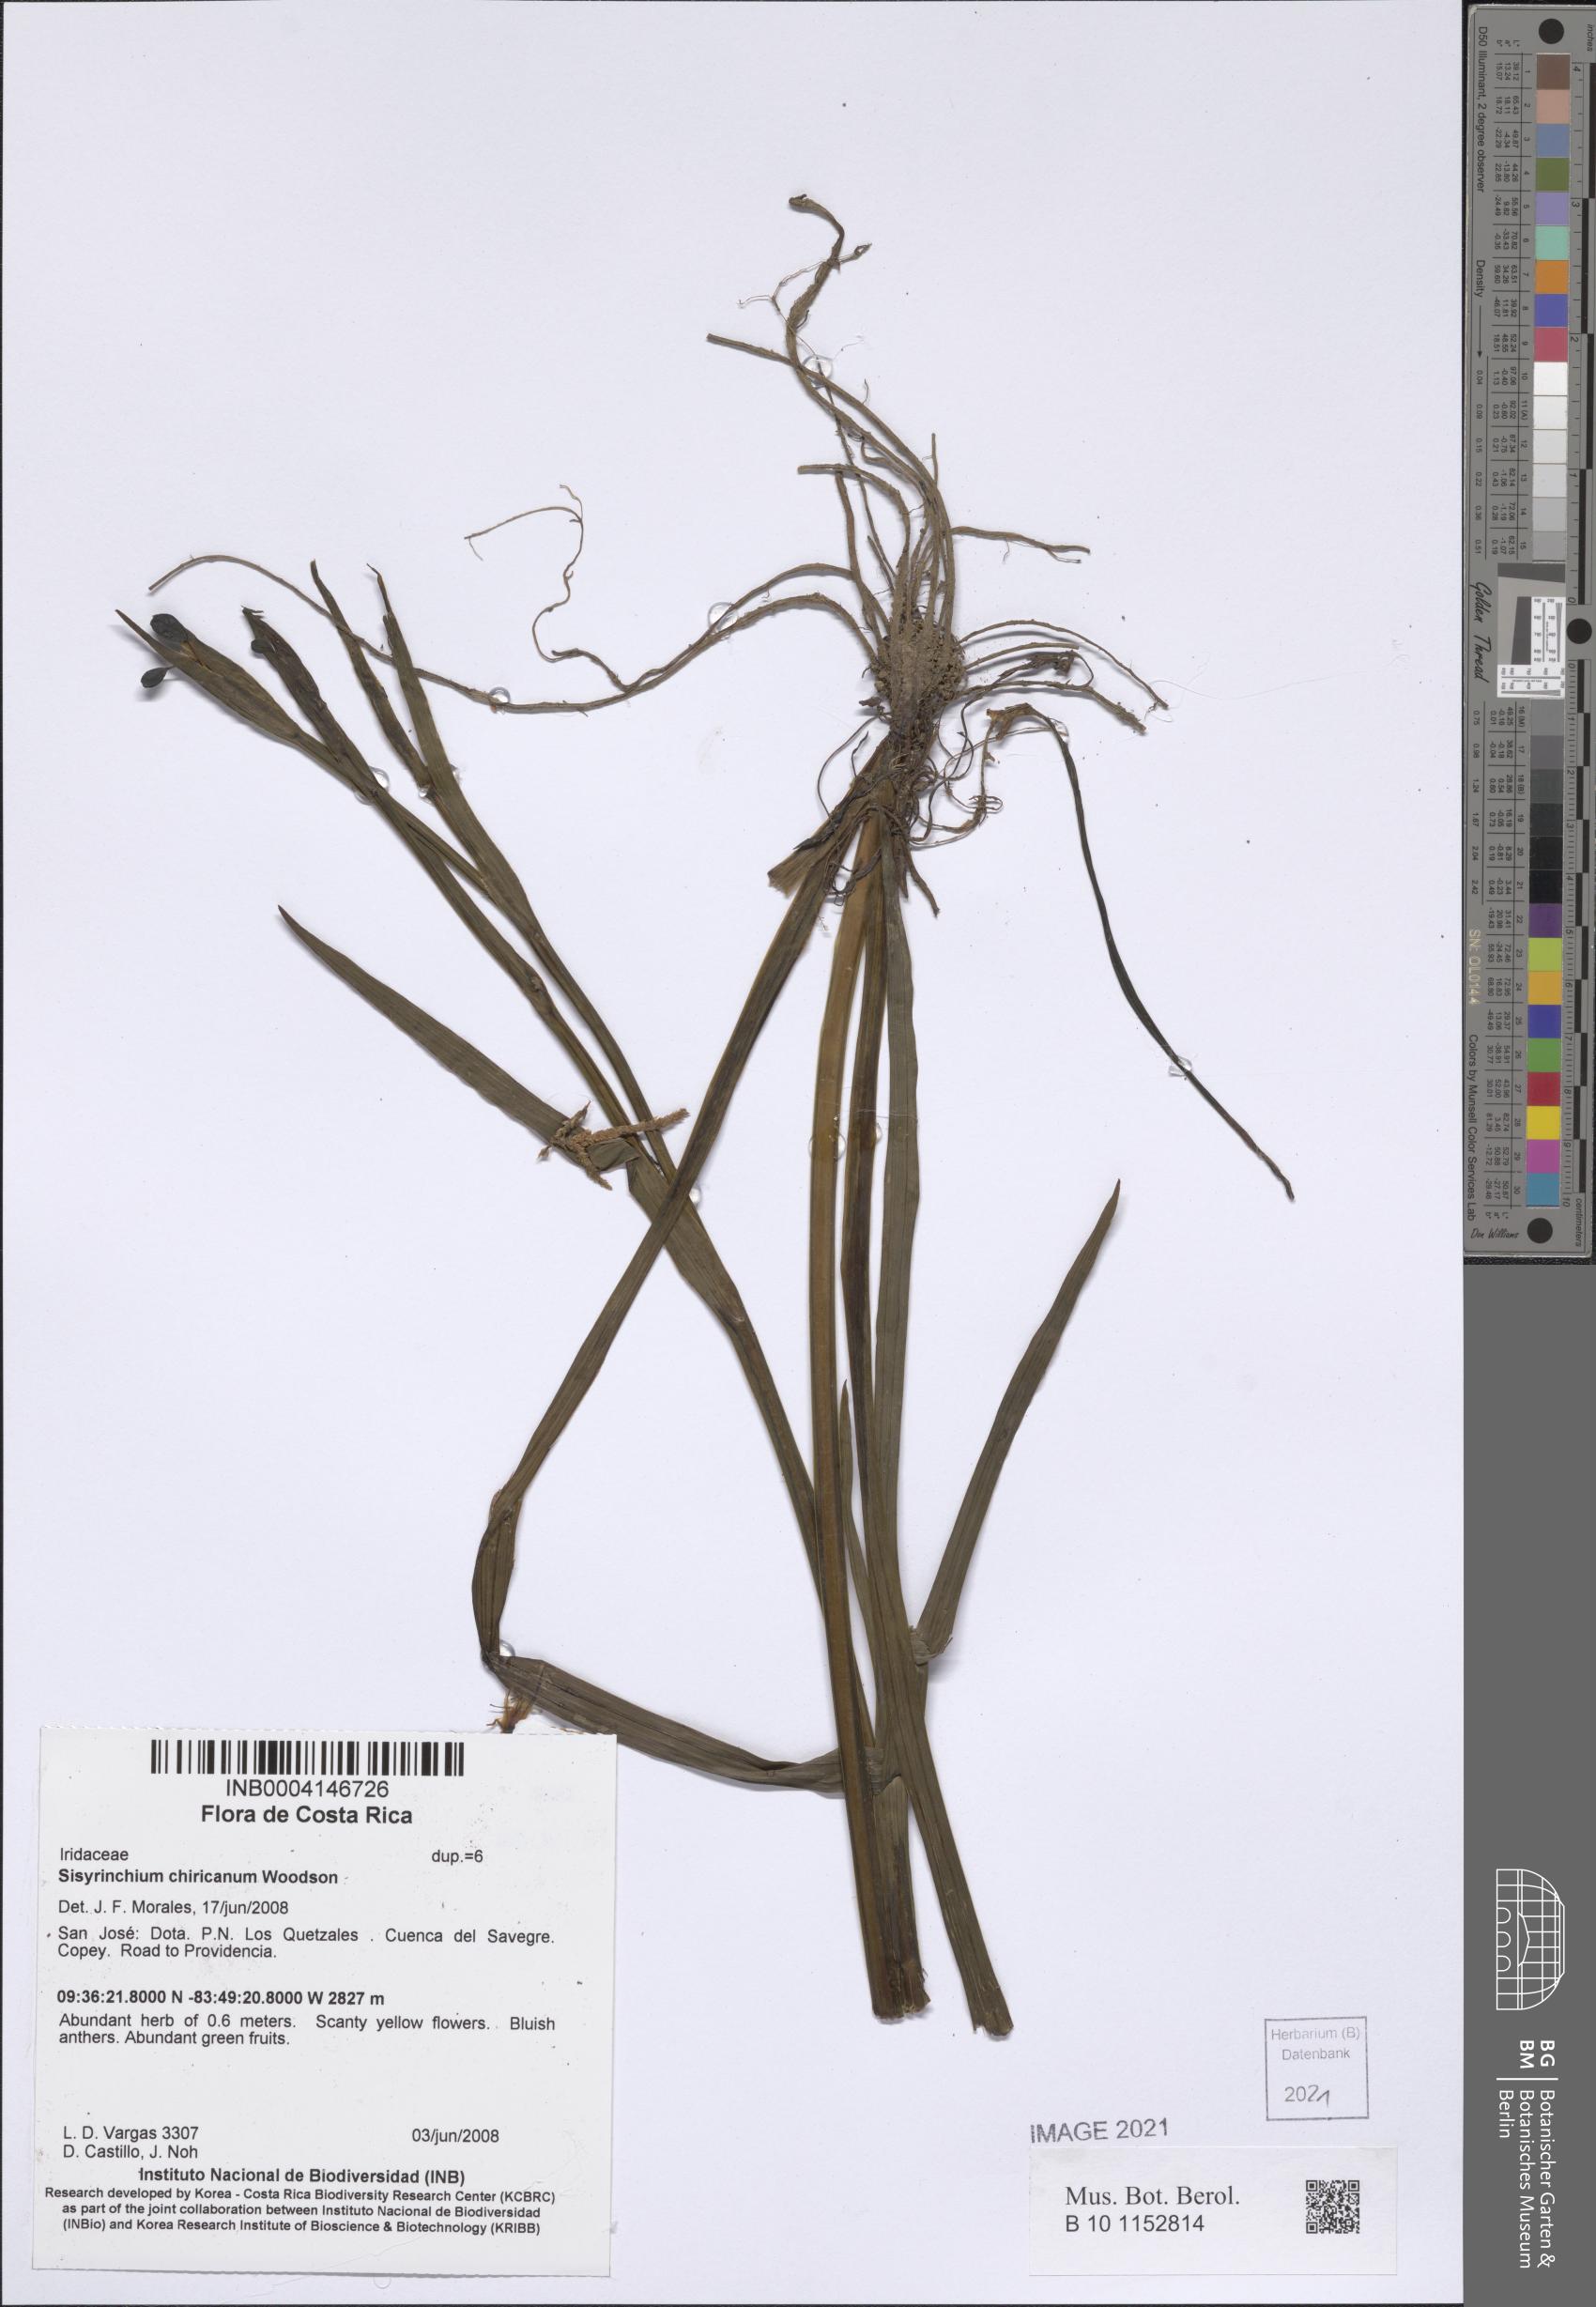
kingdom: Plantae
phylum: Tracheophyta
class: Liliopsida
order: Asparagales
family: Iridaceae
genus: Sisyrinchium
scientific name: Sisyrinchium chiricanum
